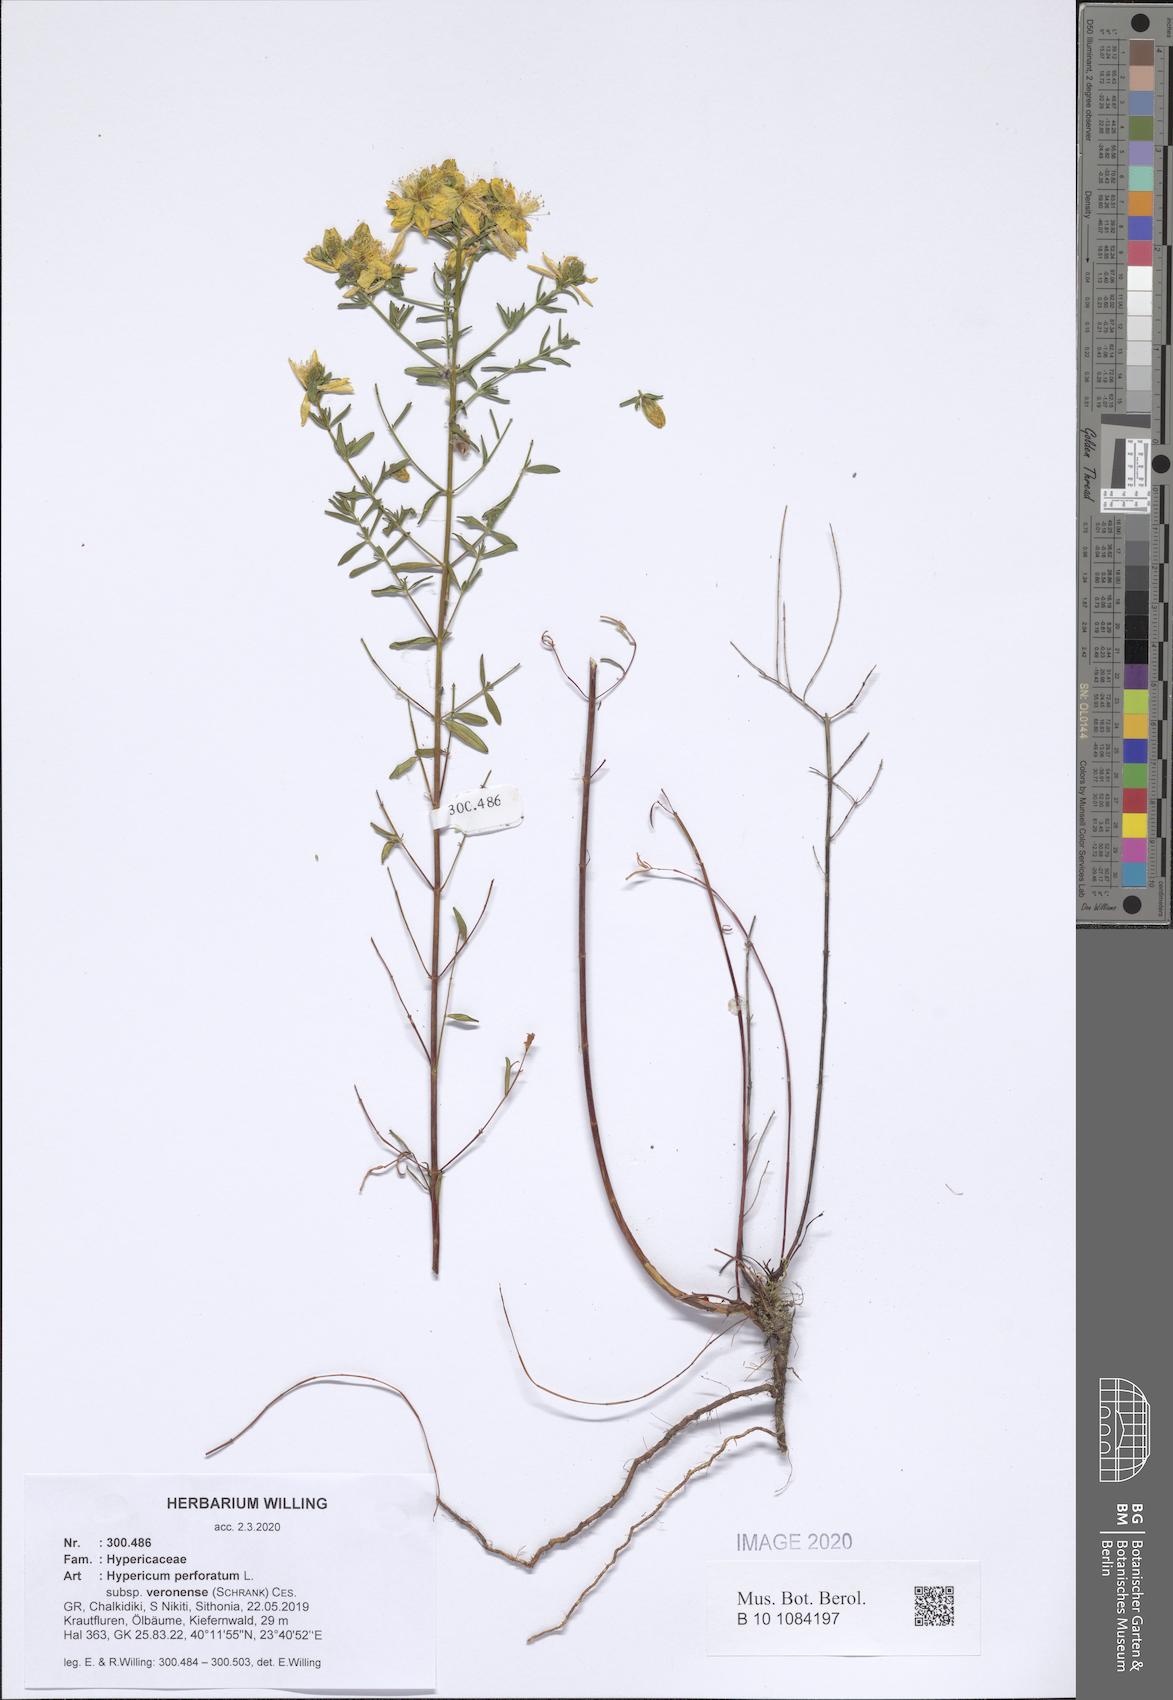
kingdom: Plantae
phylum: Tracheophyta
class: Magnoliopsida
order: Malpighiales
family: Hypericaceae
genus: Hypericum
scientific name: Hypericum veronense
